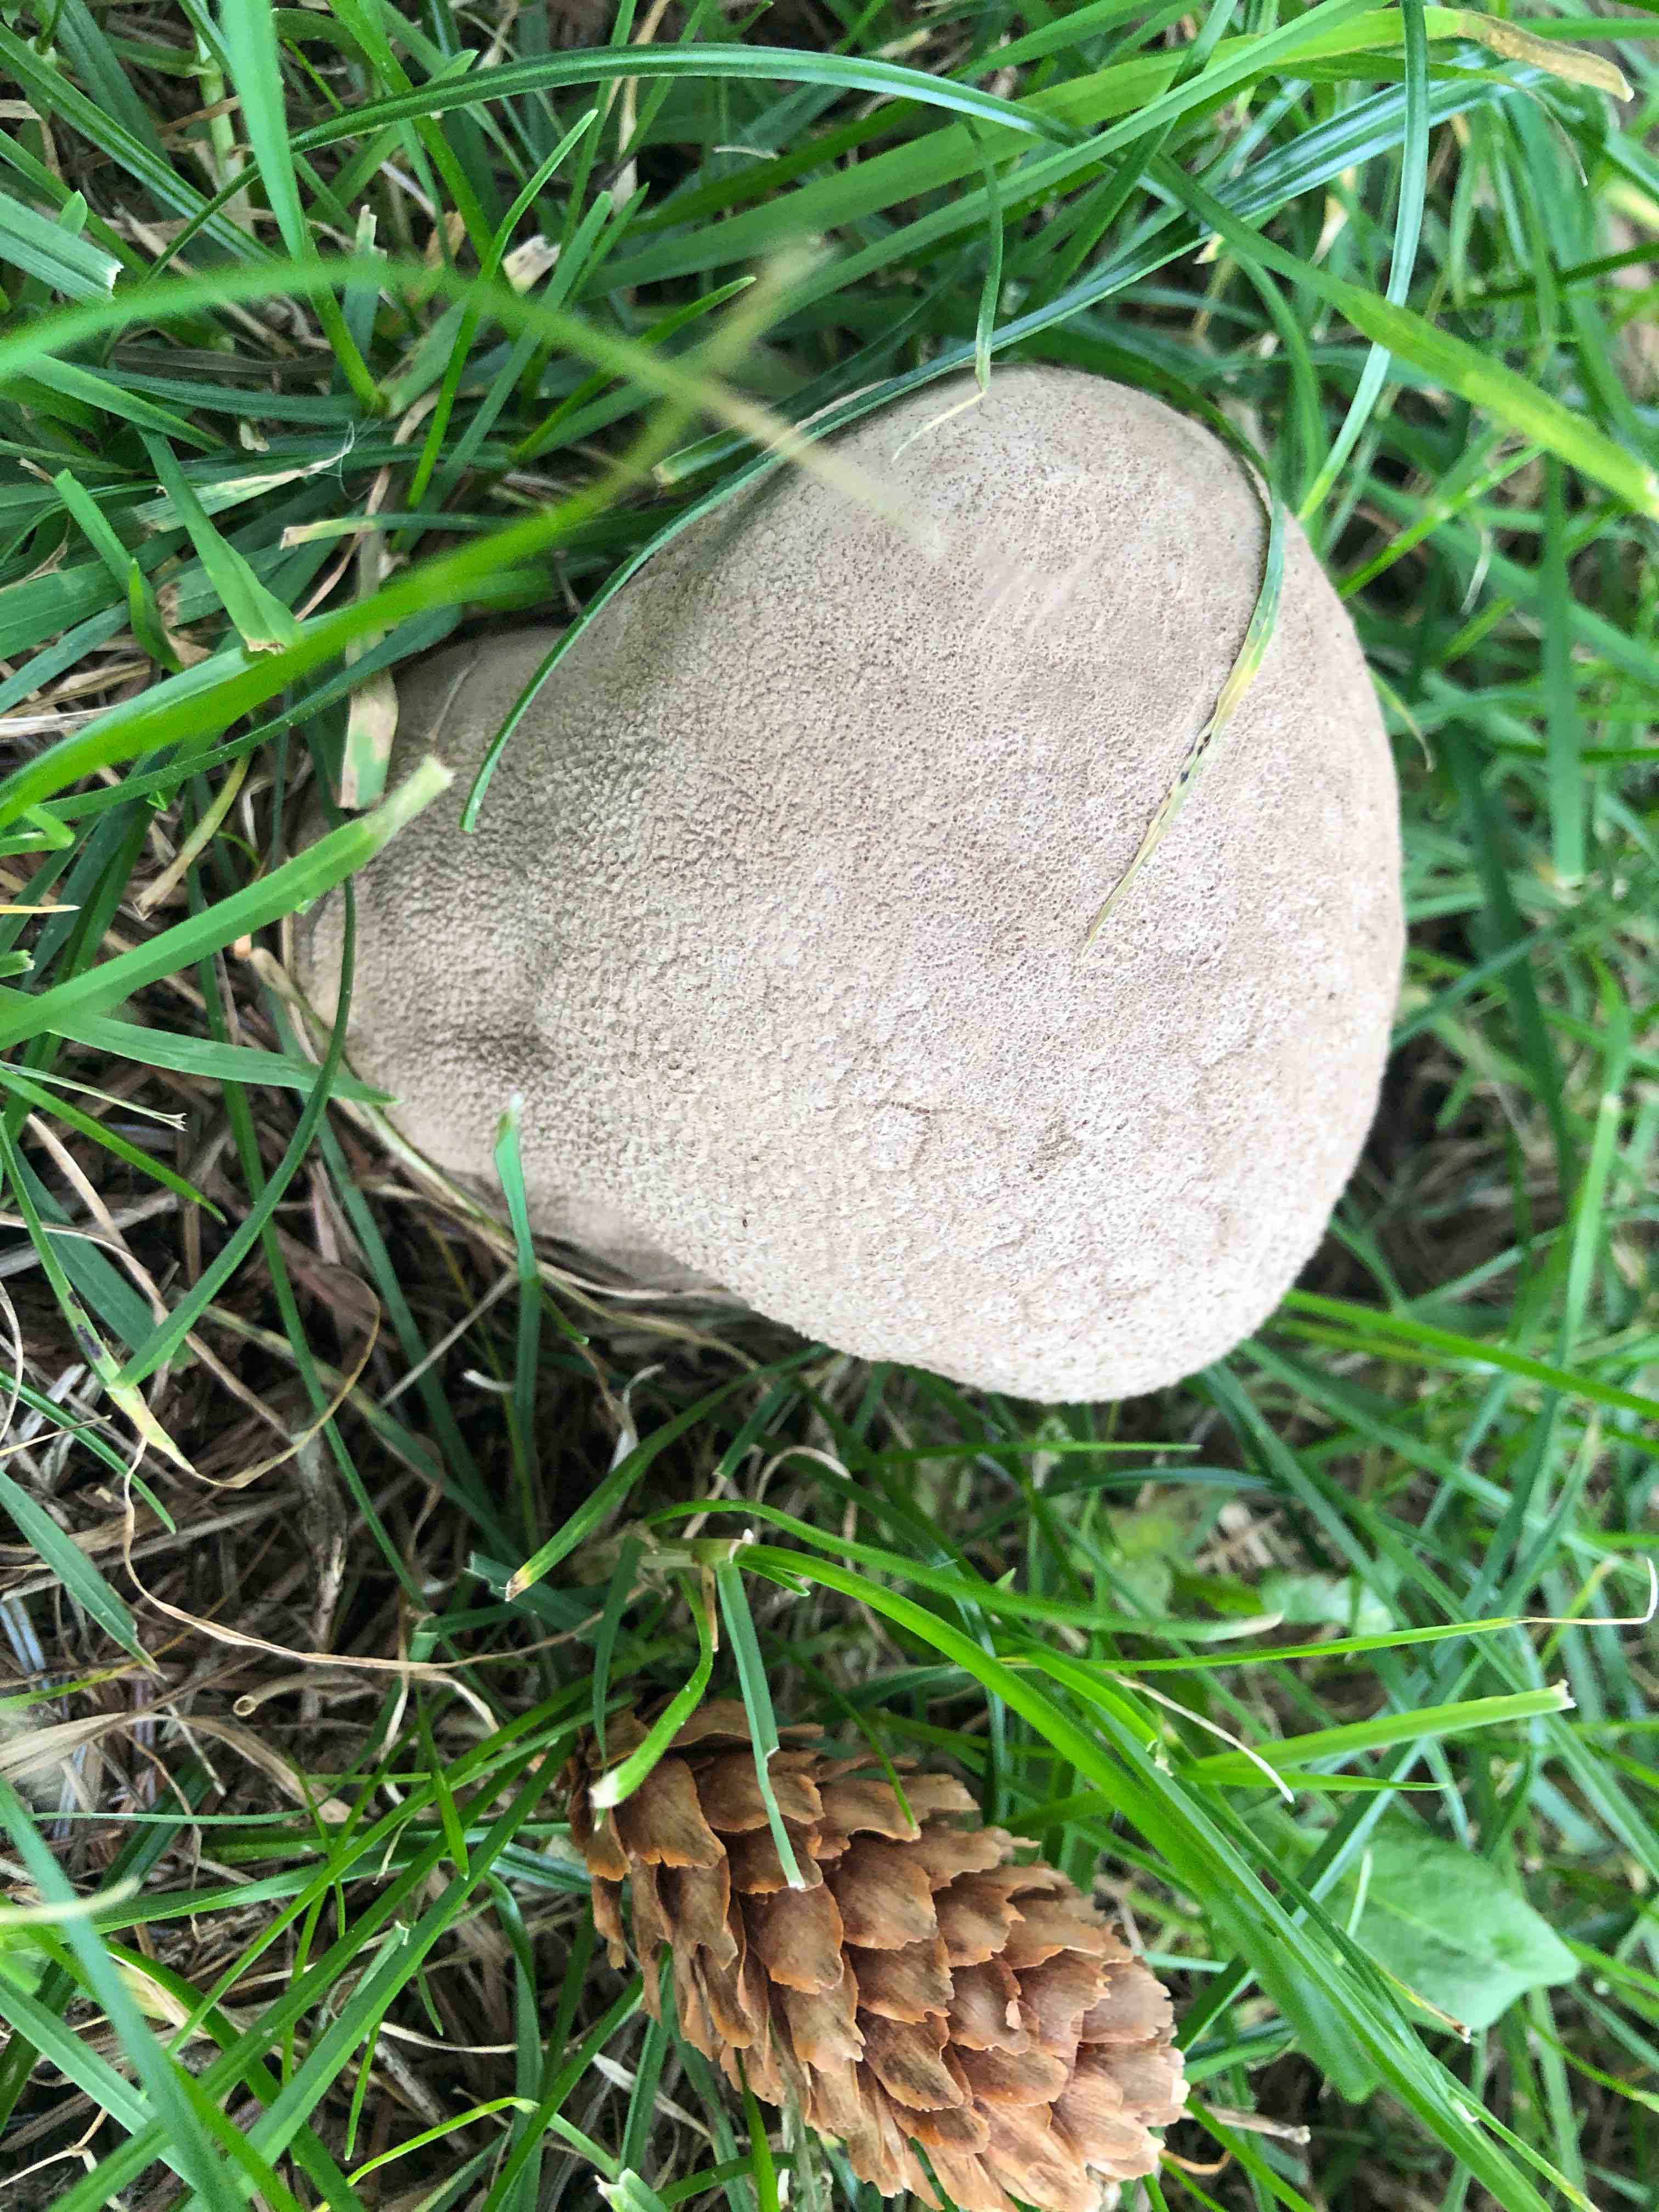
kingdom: Fungi
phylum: Basidiomycota
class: Agaricomycetes
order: Agaricales
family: Lycoperdaceae
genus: Bovistella
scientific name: Bovistella utriformis
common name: skællet støvbold
